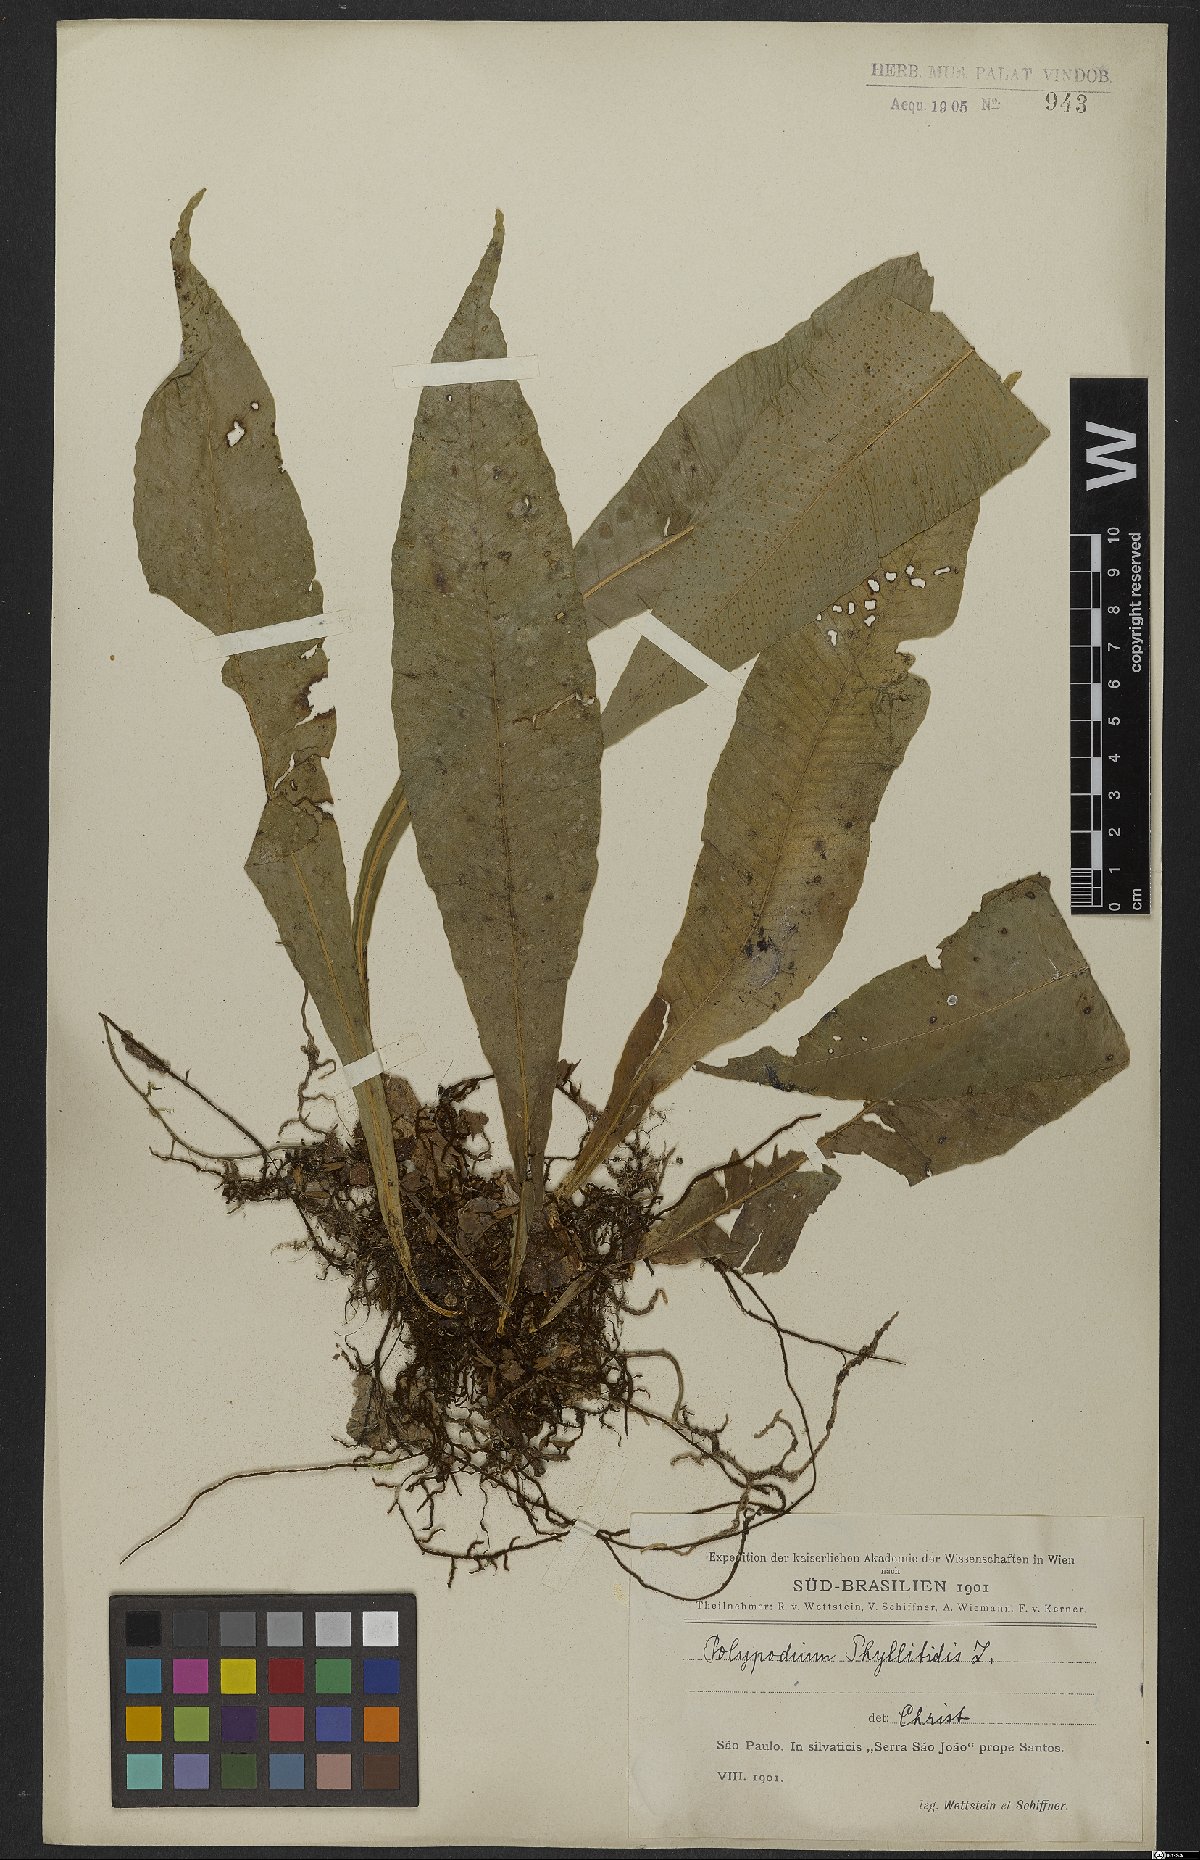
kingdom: Plantae
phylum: Tracheophyta
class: Polypodiopsida
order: Polypodiales
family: Polypodiaceae
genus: Campyloneurum
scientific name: Campyloneurum phyllitidis
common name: Cow-tongue fern
